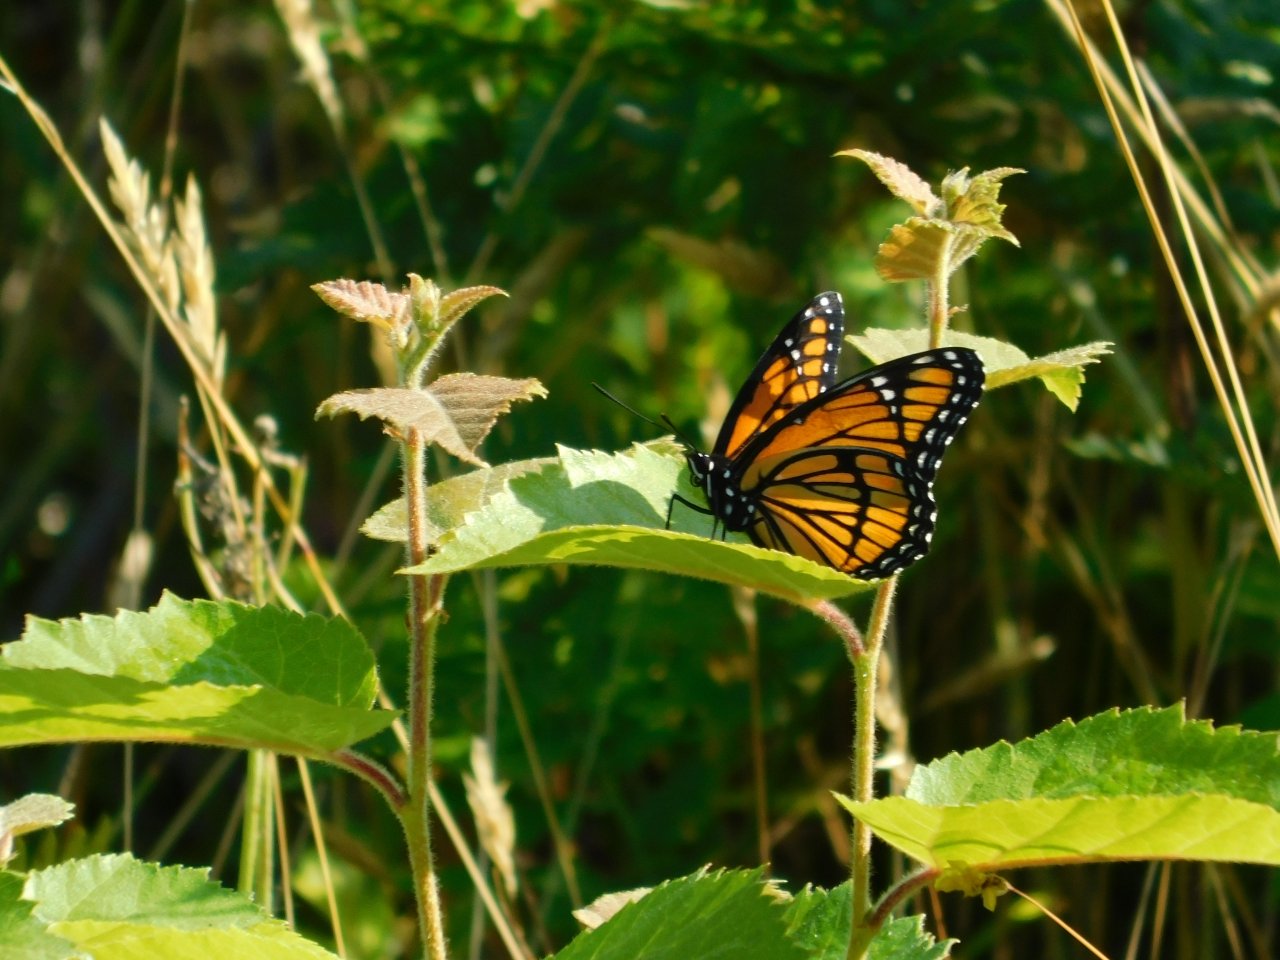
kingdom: Animalia
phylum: Arthropoda
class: Insecta
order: Lepidoptera
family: Nymphalidae
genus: Limenitis
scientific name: Limenitis archippus
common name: Viceroy
